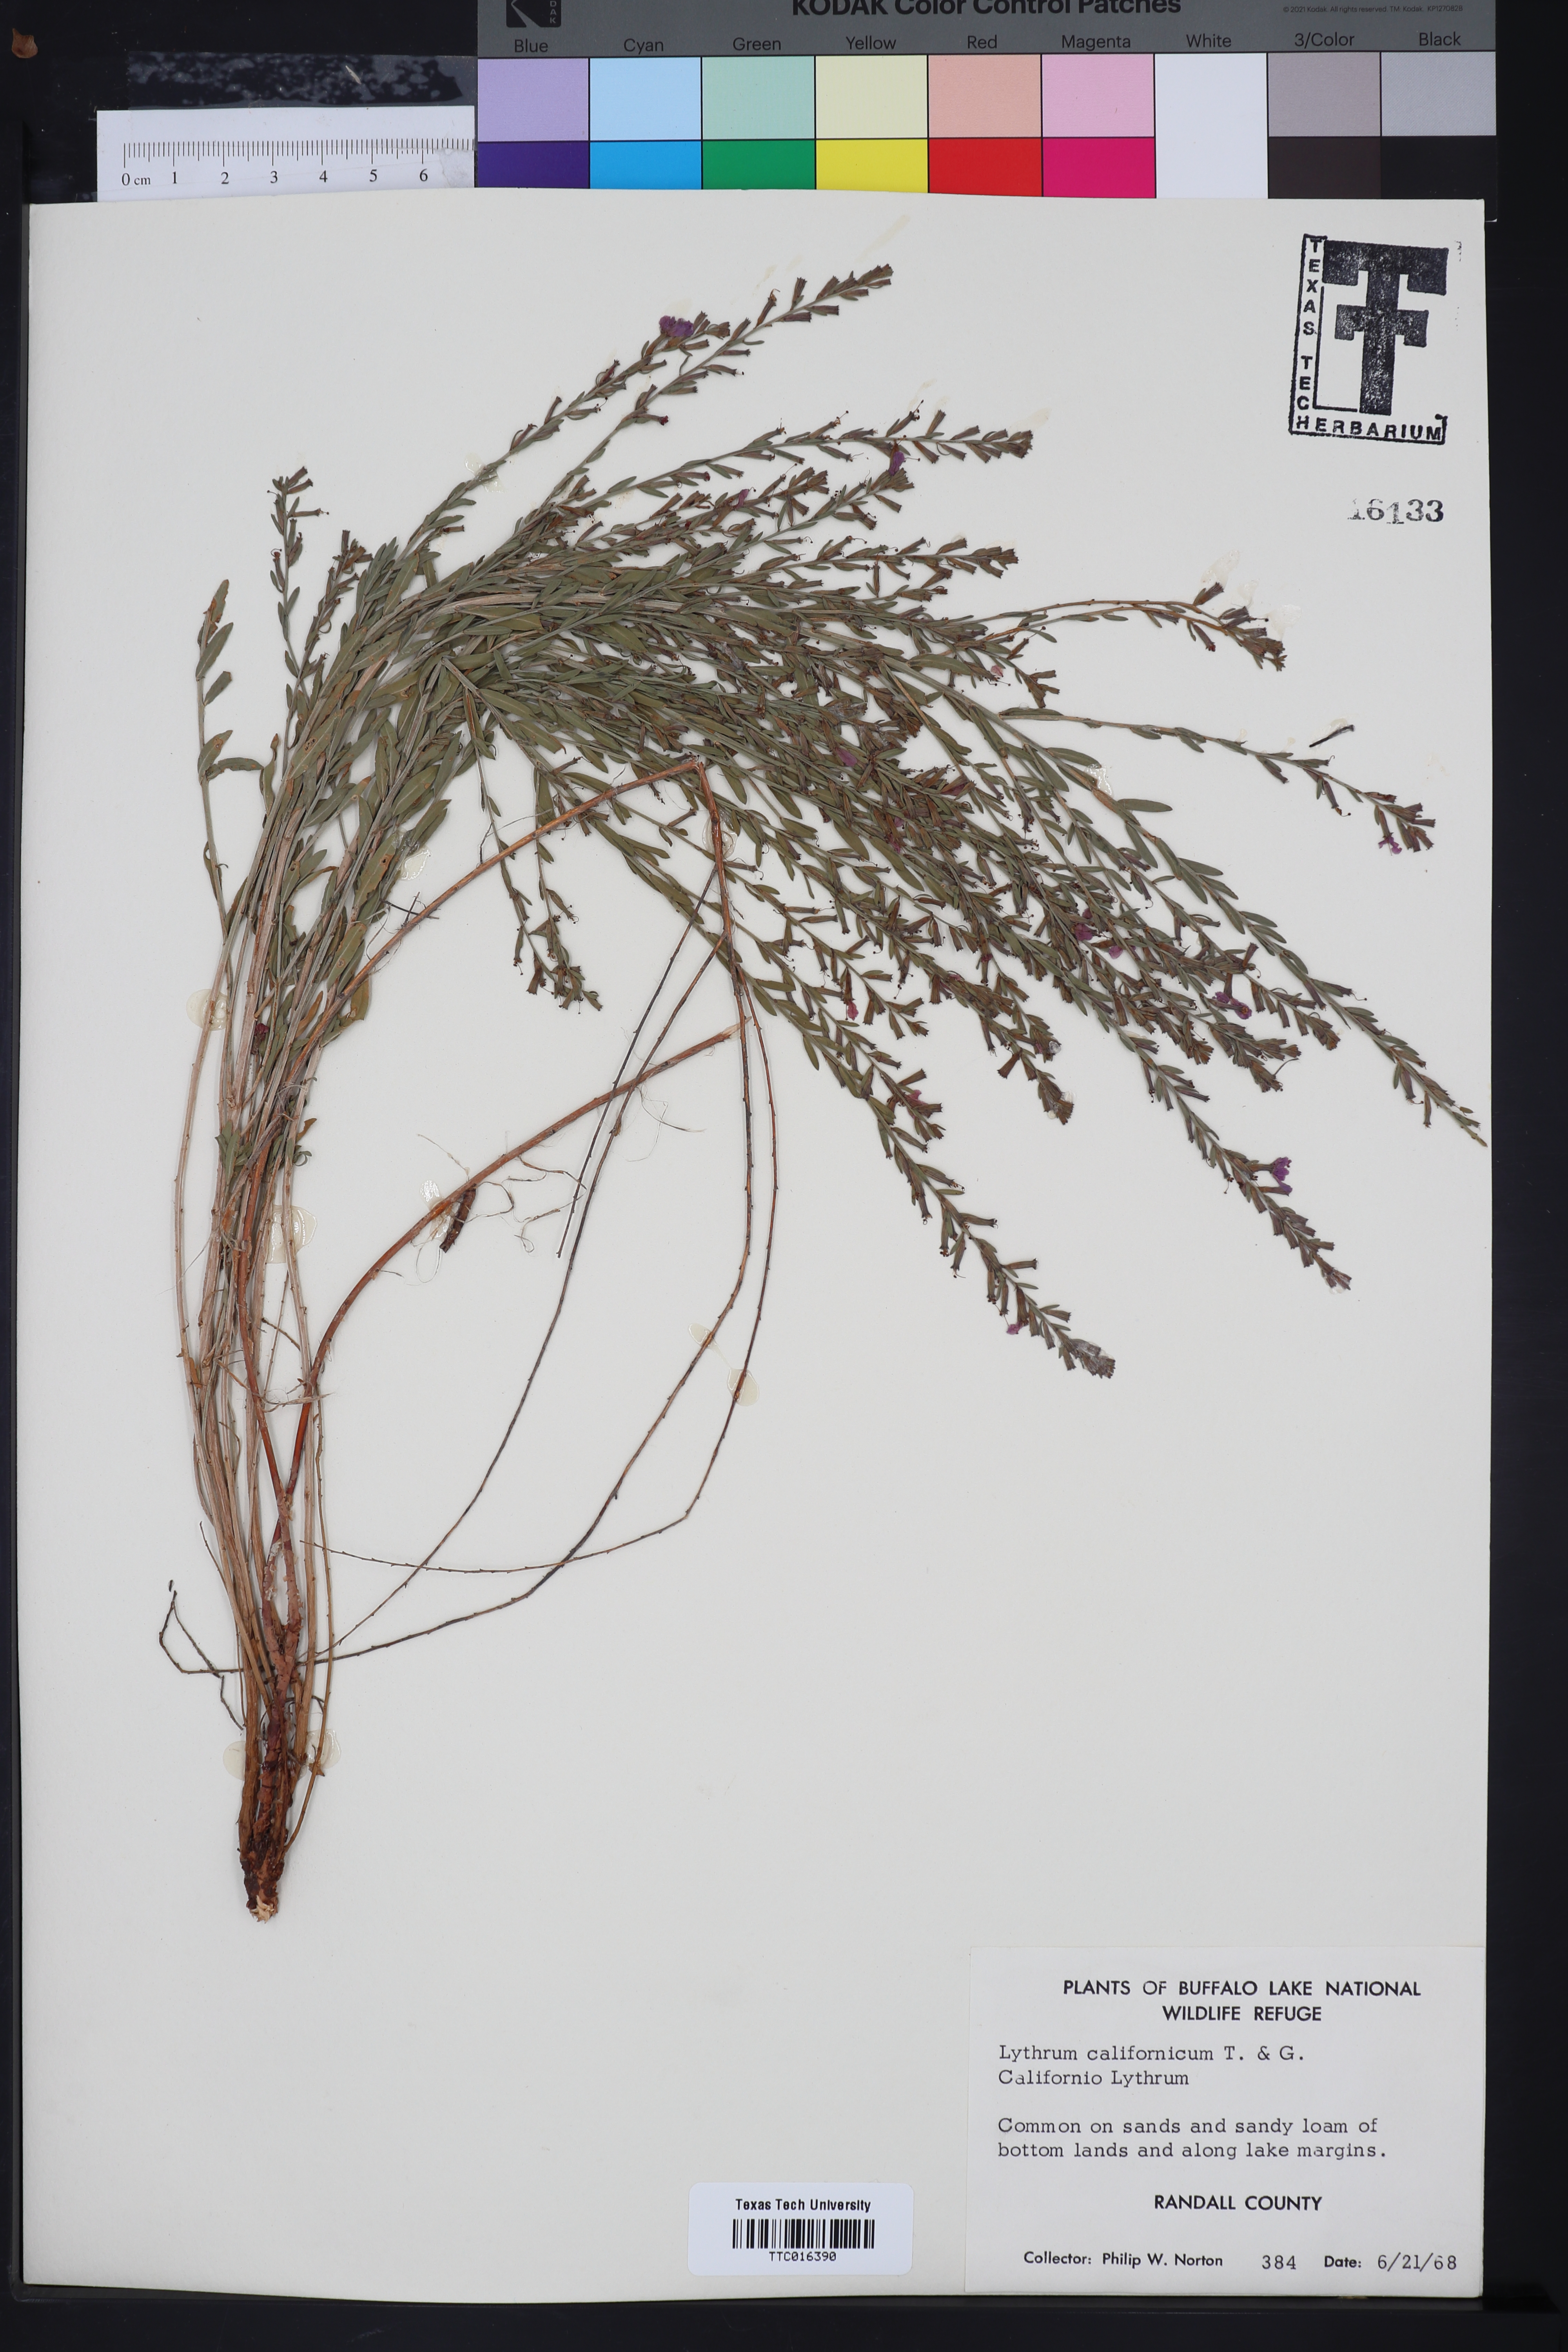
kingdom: Plantae
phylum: Tracheophyta
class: Magnoliopsida
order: Myrtales
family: Lythraceae
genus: Lythrum
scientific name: Lythrum californicum
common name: California loosestrife
